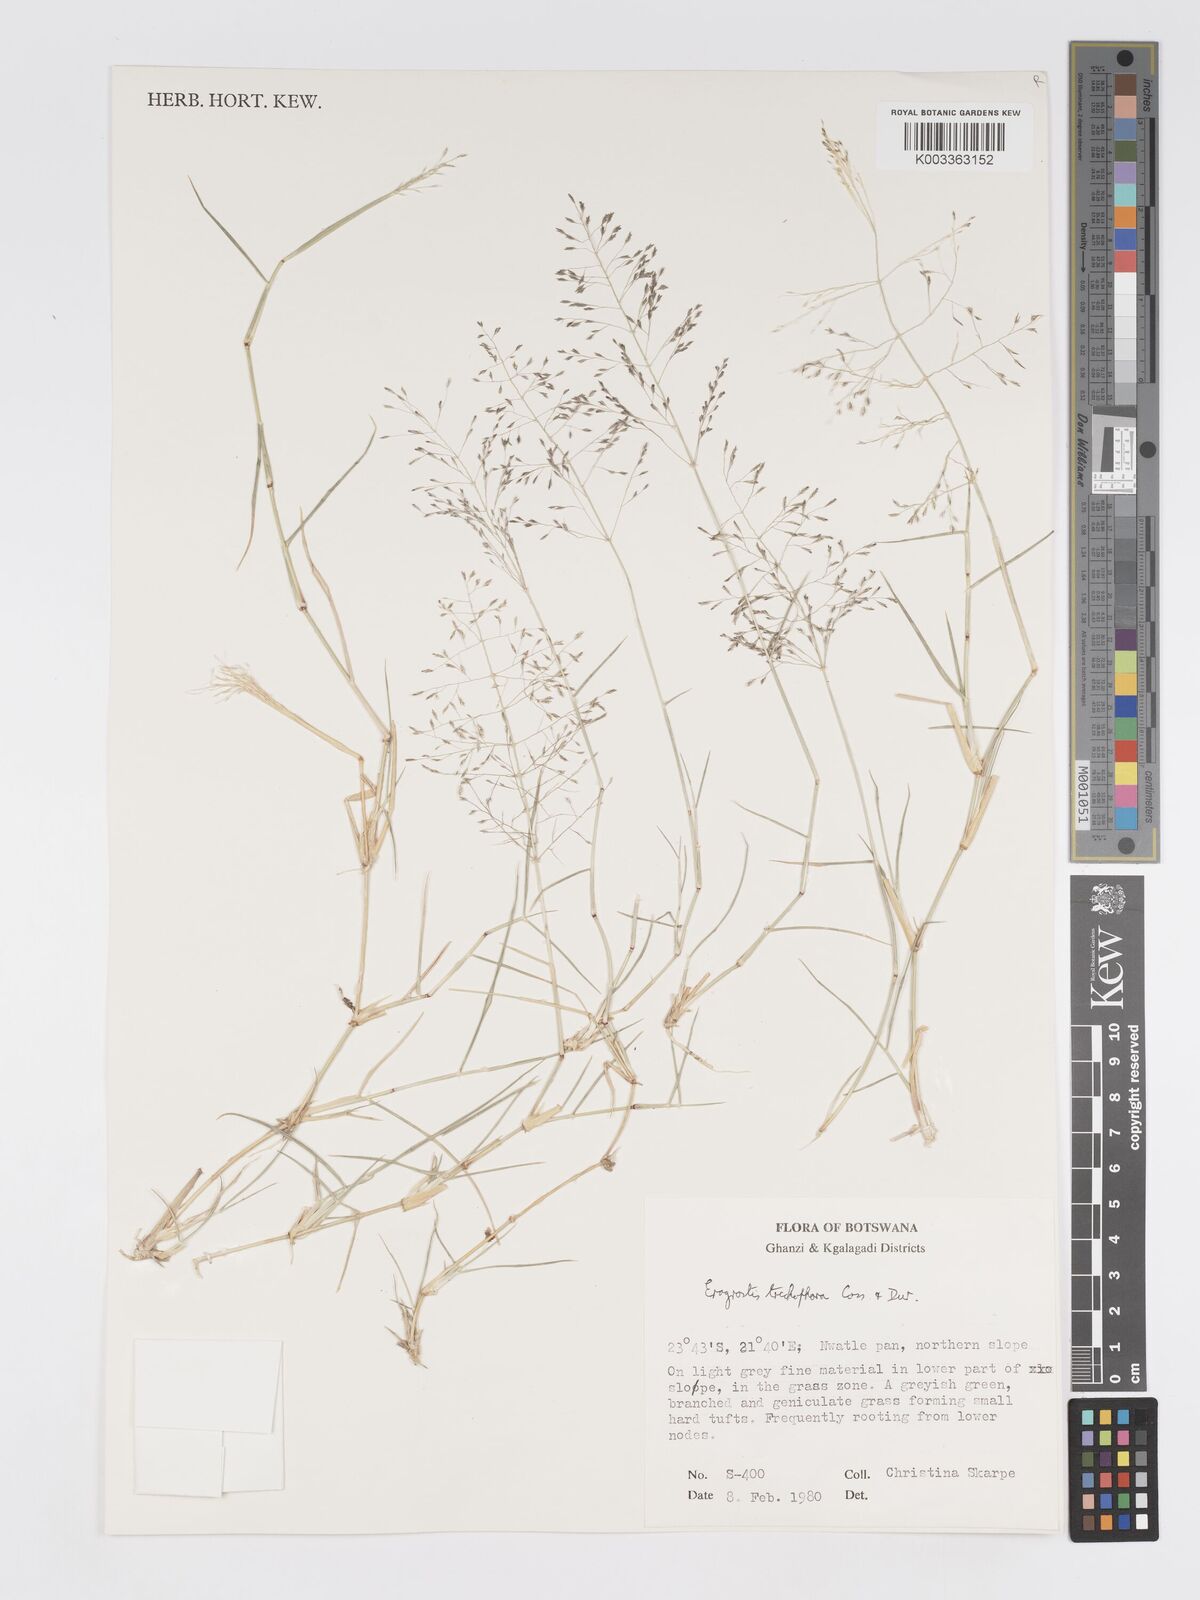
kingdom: Plantae
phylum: Tracheophyta
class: Liliopsida
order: Poales
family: Poaceae
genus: Eragrostis
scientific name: Eragrostis cylindriflora
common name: Cylinderflower lovegrass
